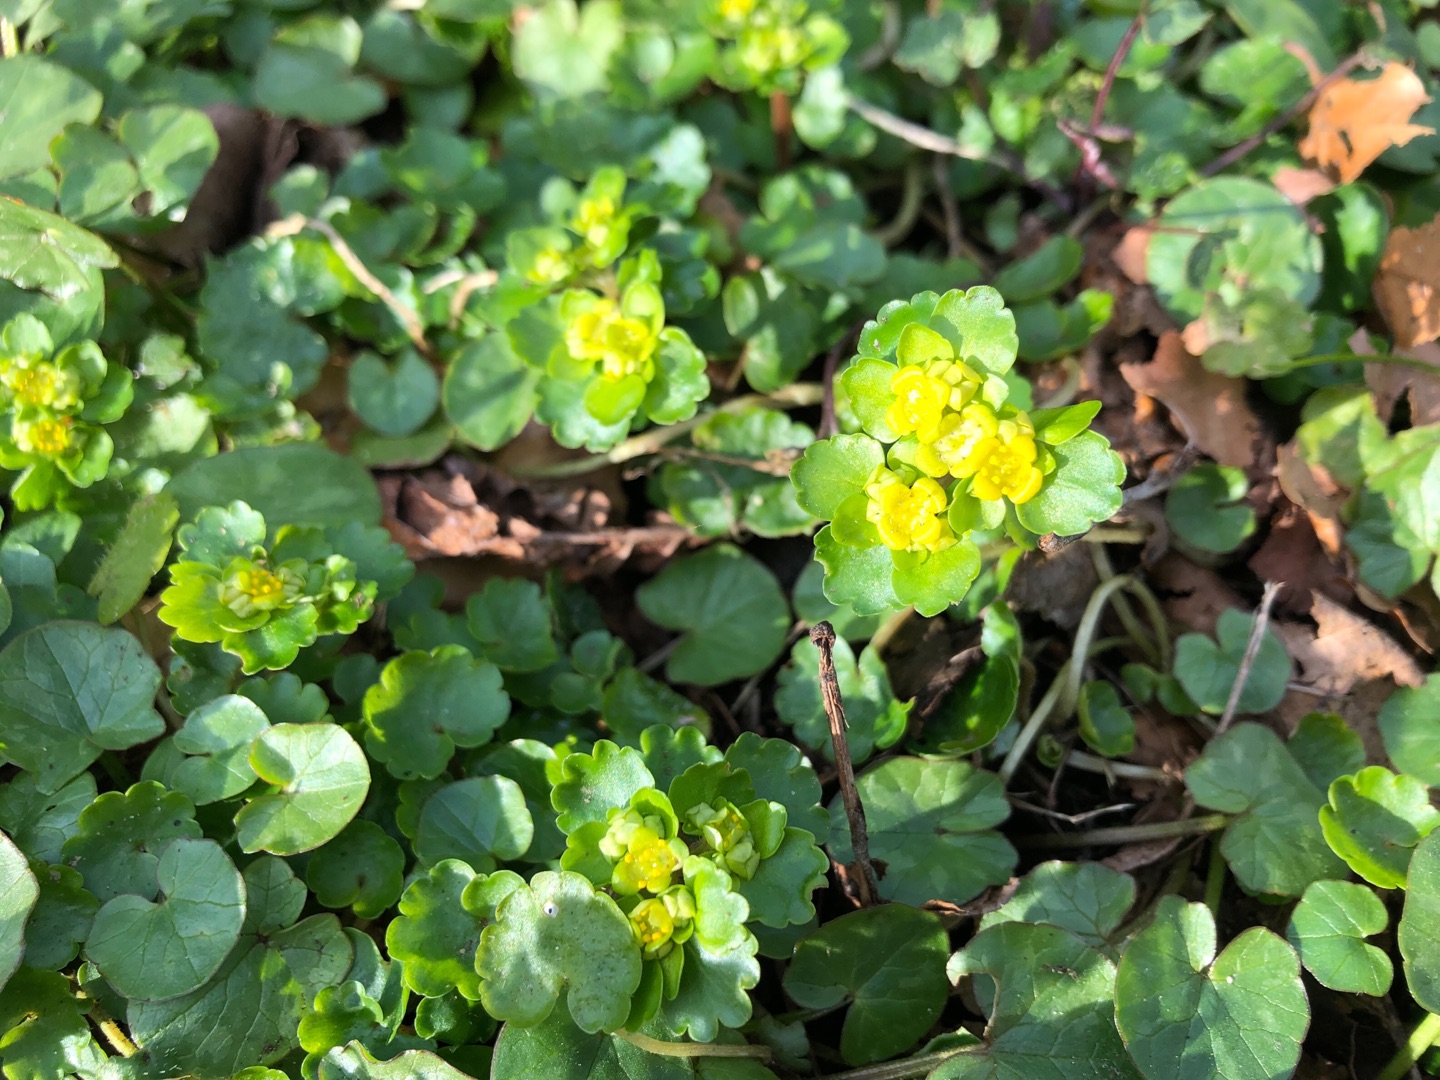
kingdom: Plantae
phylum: Tracheophyta
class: Magnoliopsida
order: Saxifragales
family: Saxifragaceae
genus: Chrysosplenium
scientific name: Chrysosplenium alternifolium
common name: Almindelig milturt
